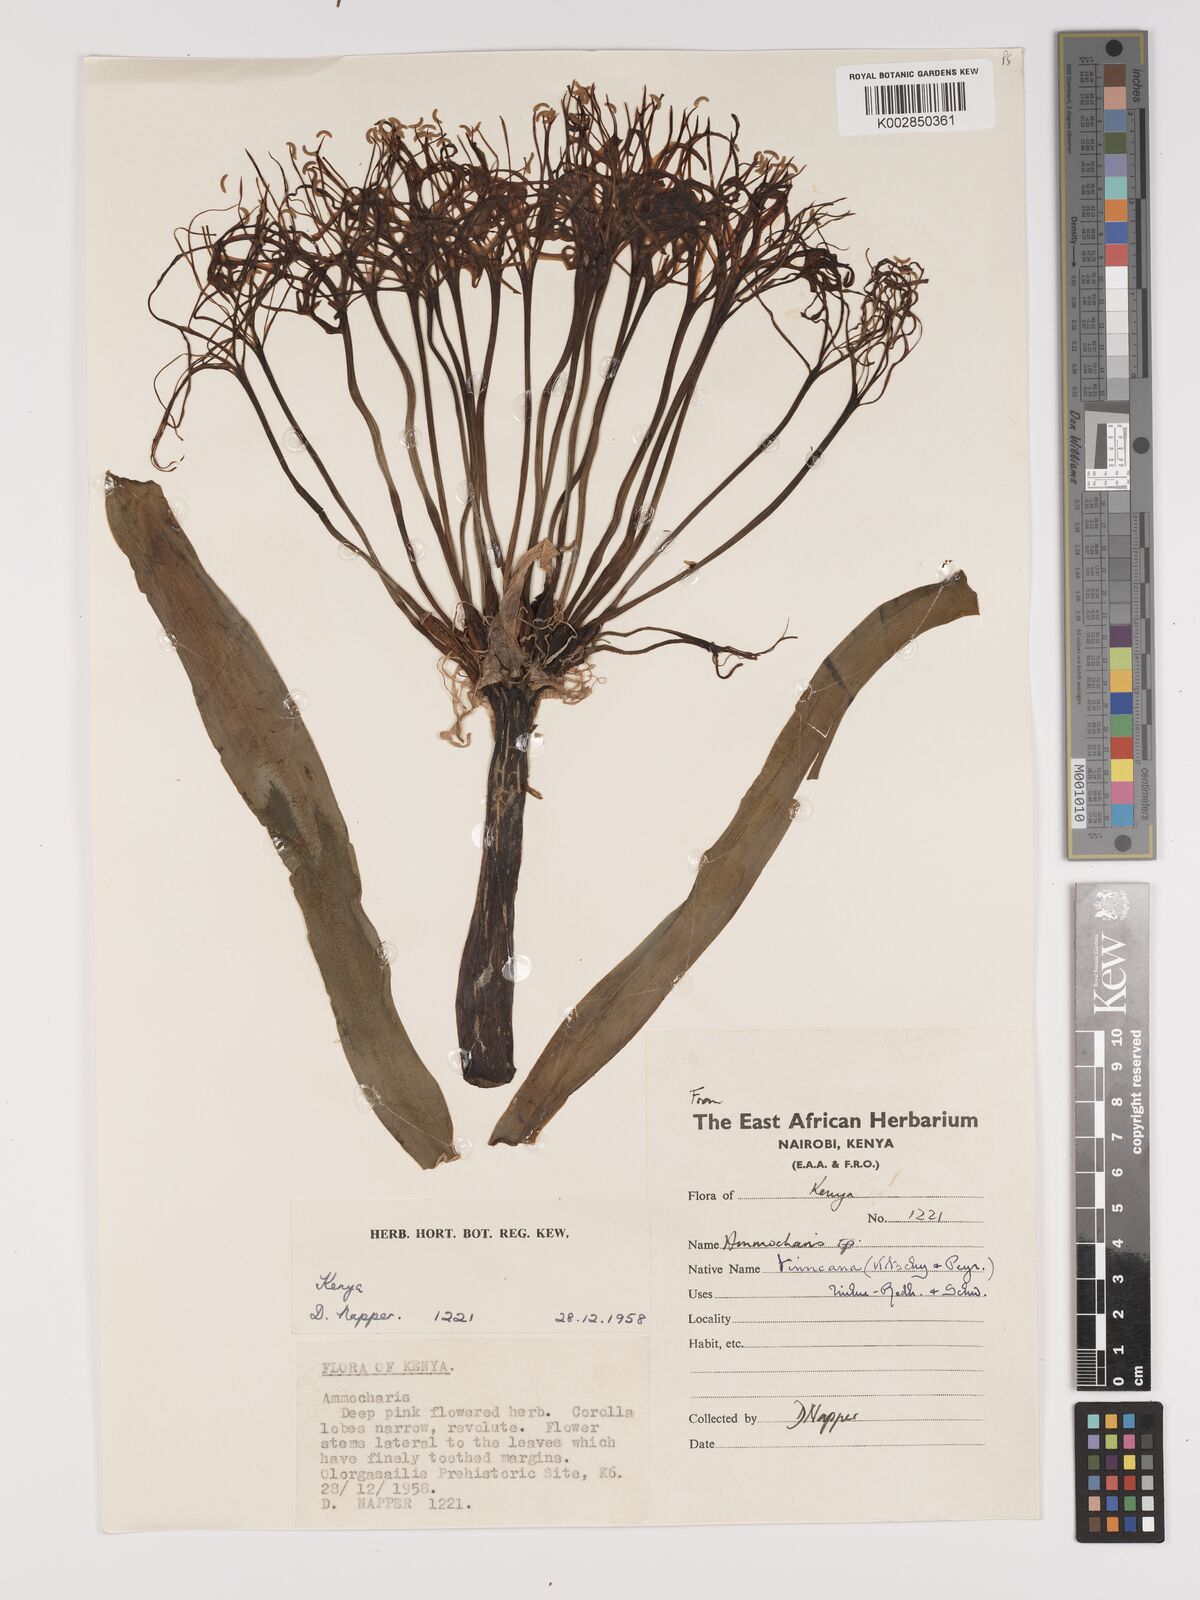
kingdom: Plantae
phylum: Tracheophyta
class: Liliopsida
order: Asparagales
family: Amaryllidaceae
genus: Ammocharis
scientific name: Ammocharis tinneana
